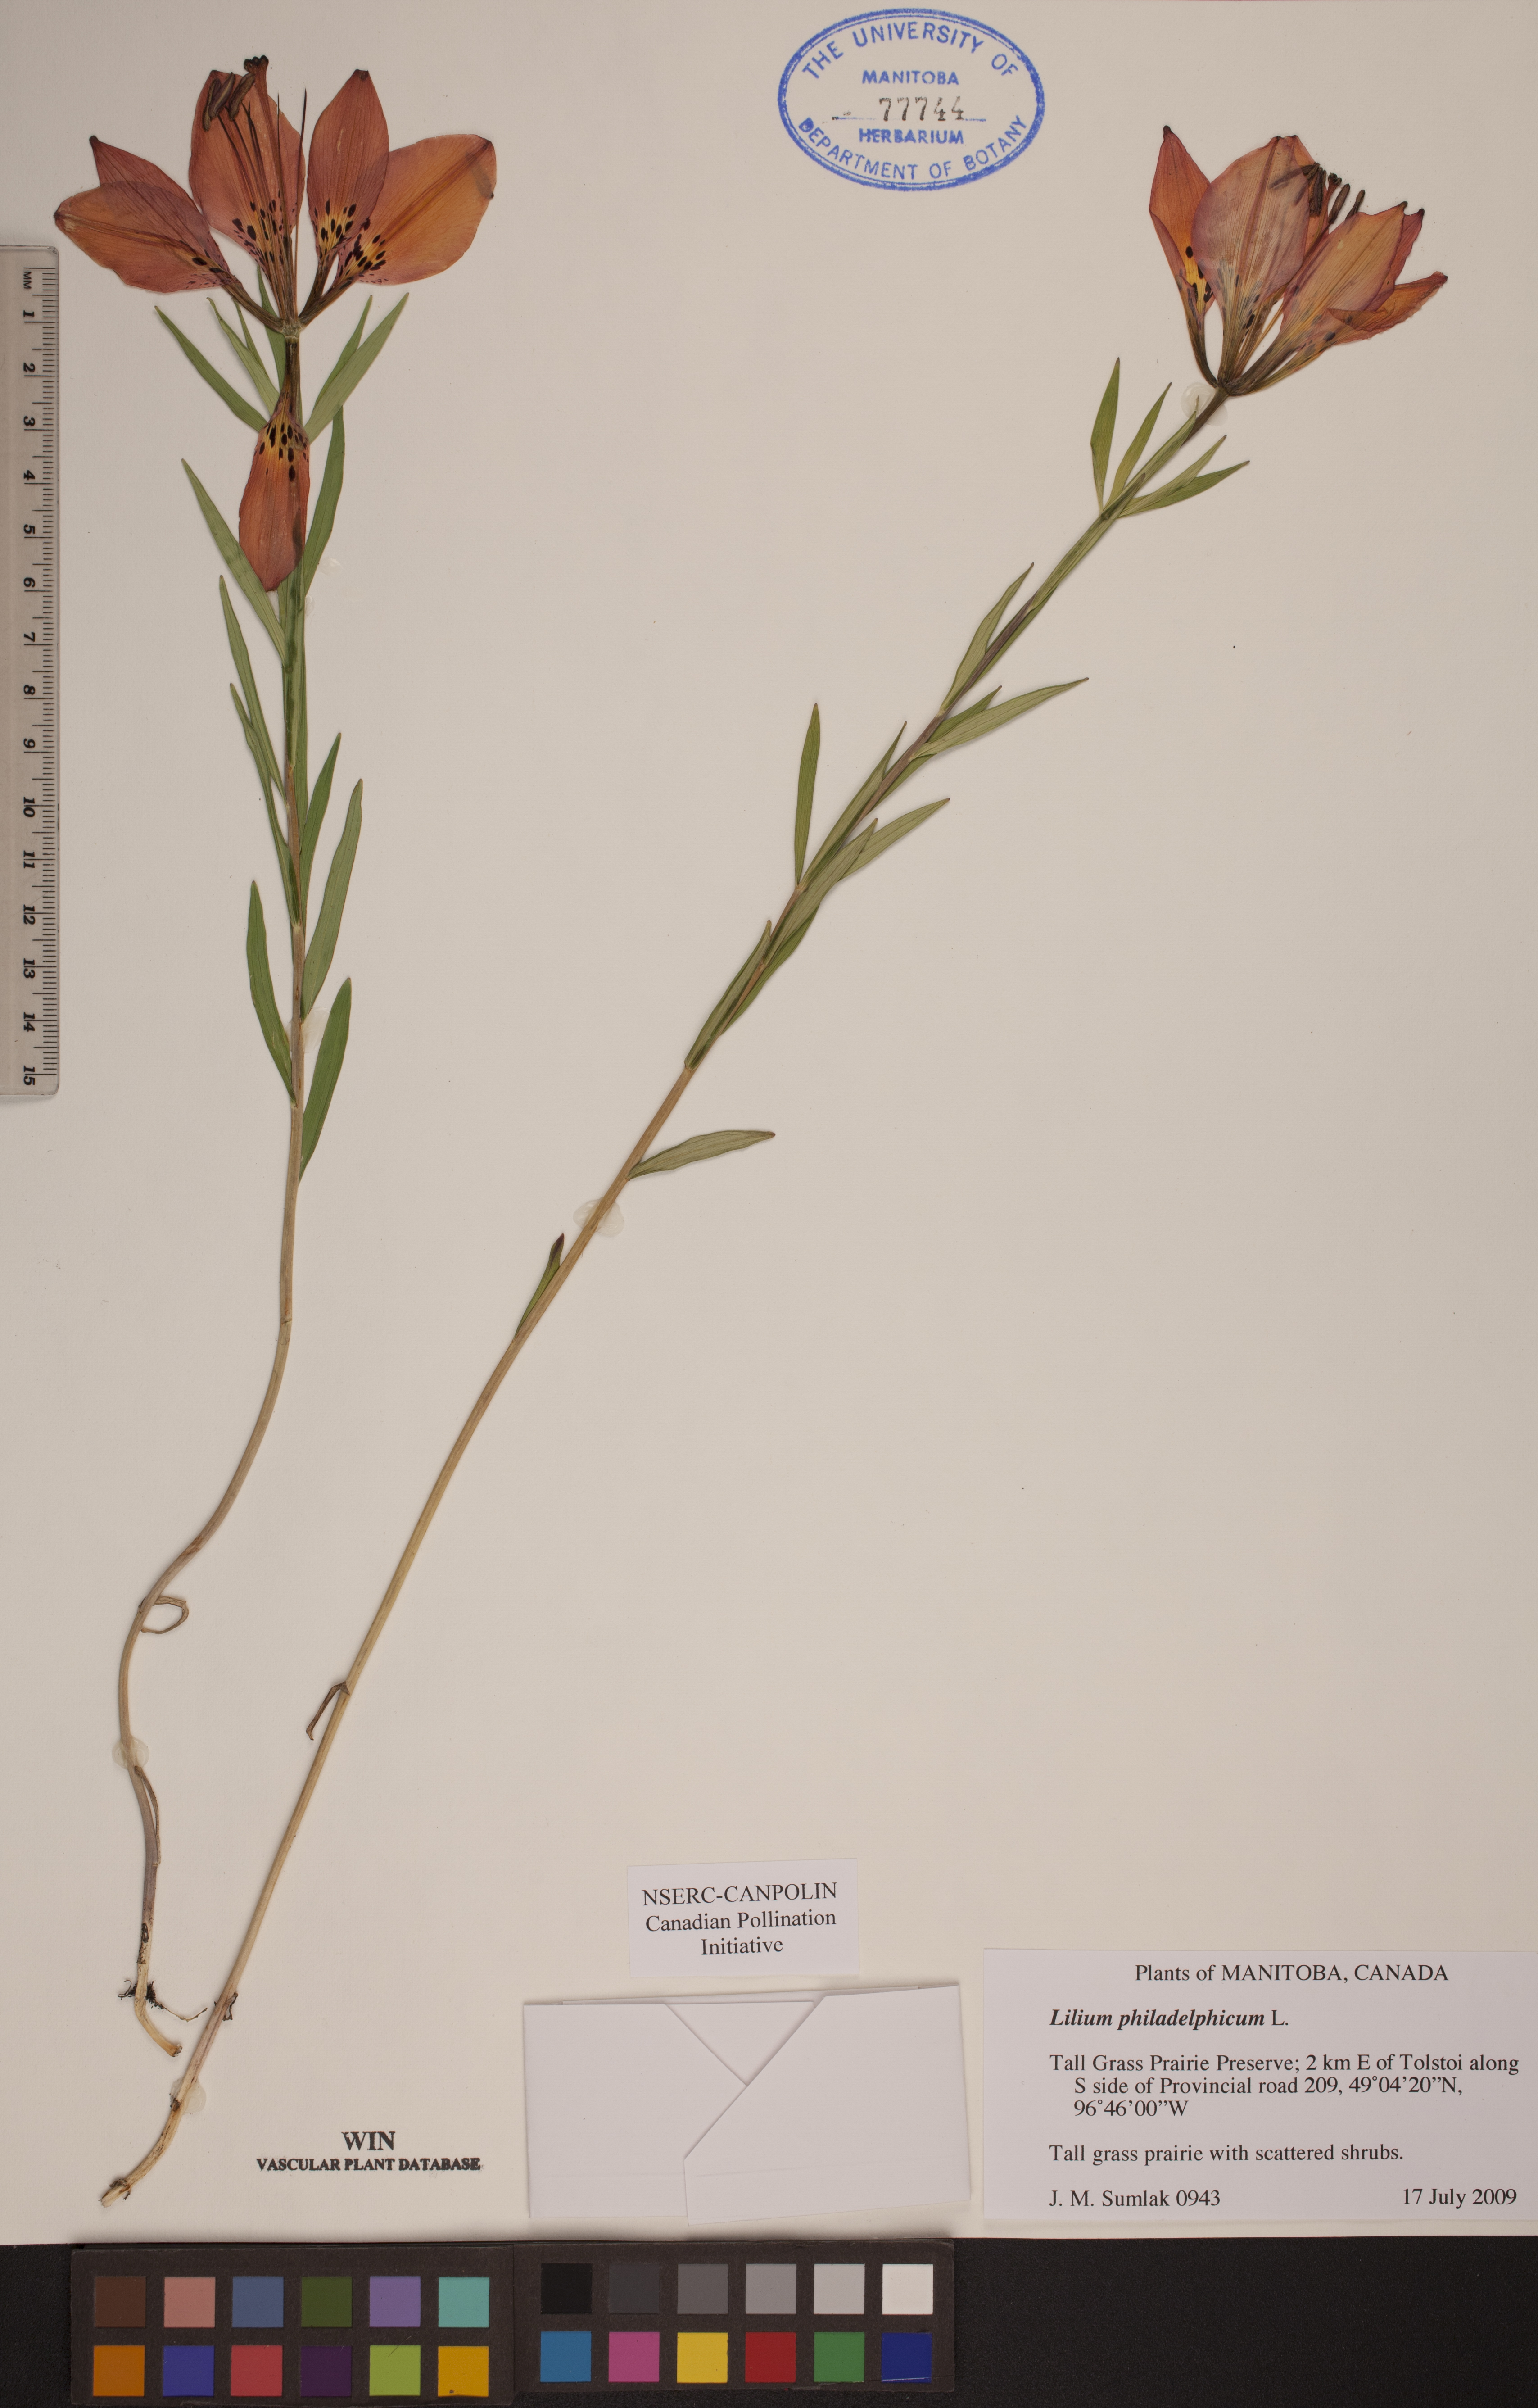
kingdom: Plantae
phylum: Tracheophyta
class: Liliopsida
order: Liliales
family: Liliaceae
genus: Lilium
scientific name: Lilium philadelphicum
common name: Red lily
